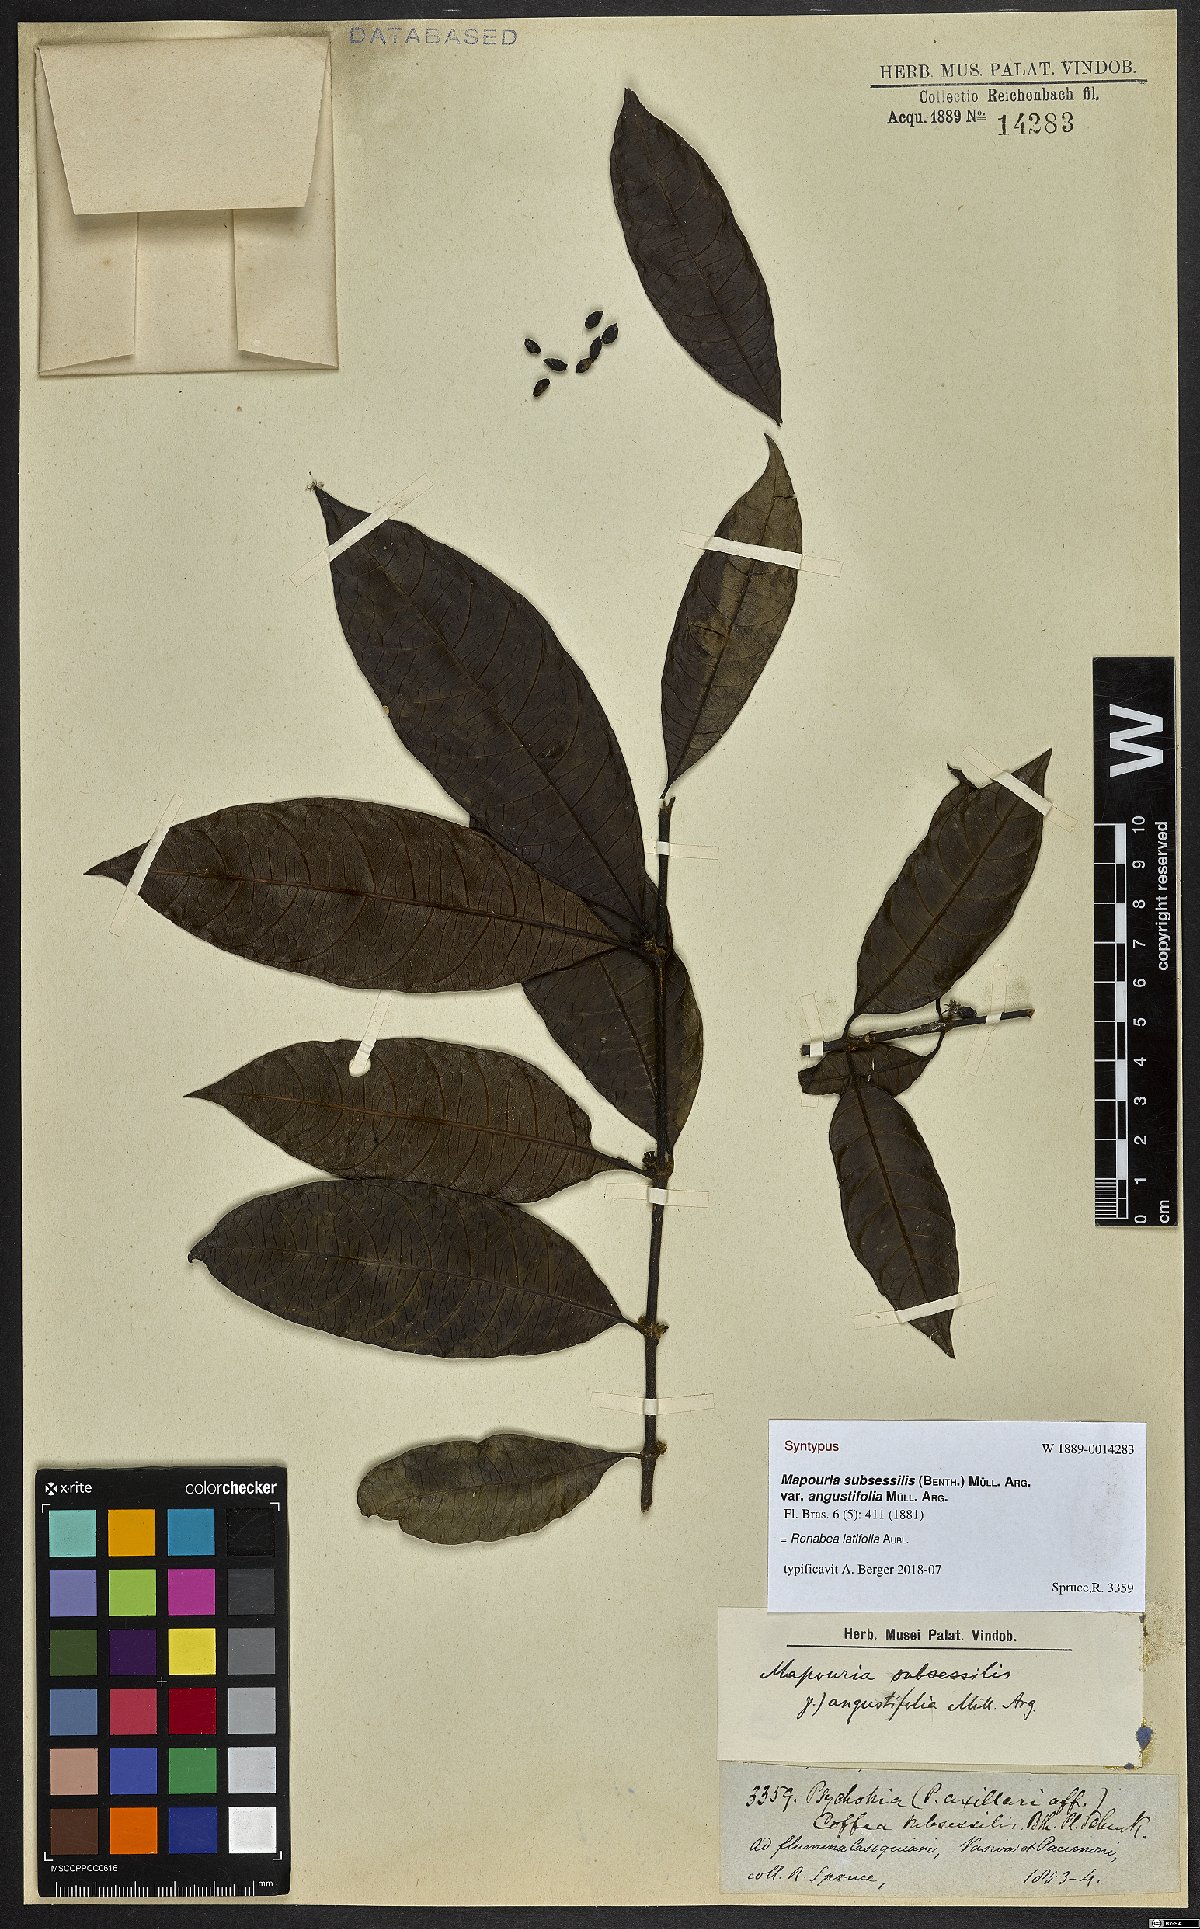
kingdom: Plantae
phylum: Tracheophyta
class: Magnoliopsida
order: Gentianales
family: Rubiaceae
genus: Ronabea
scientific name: Ronabea latifolia
